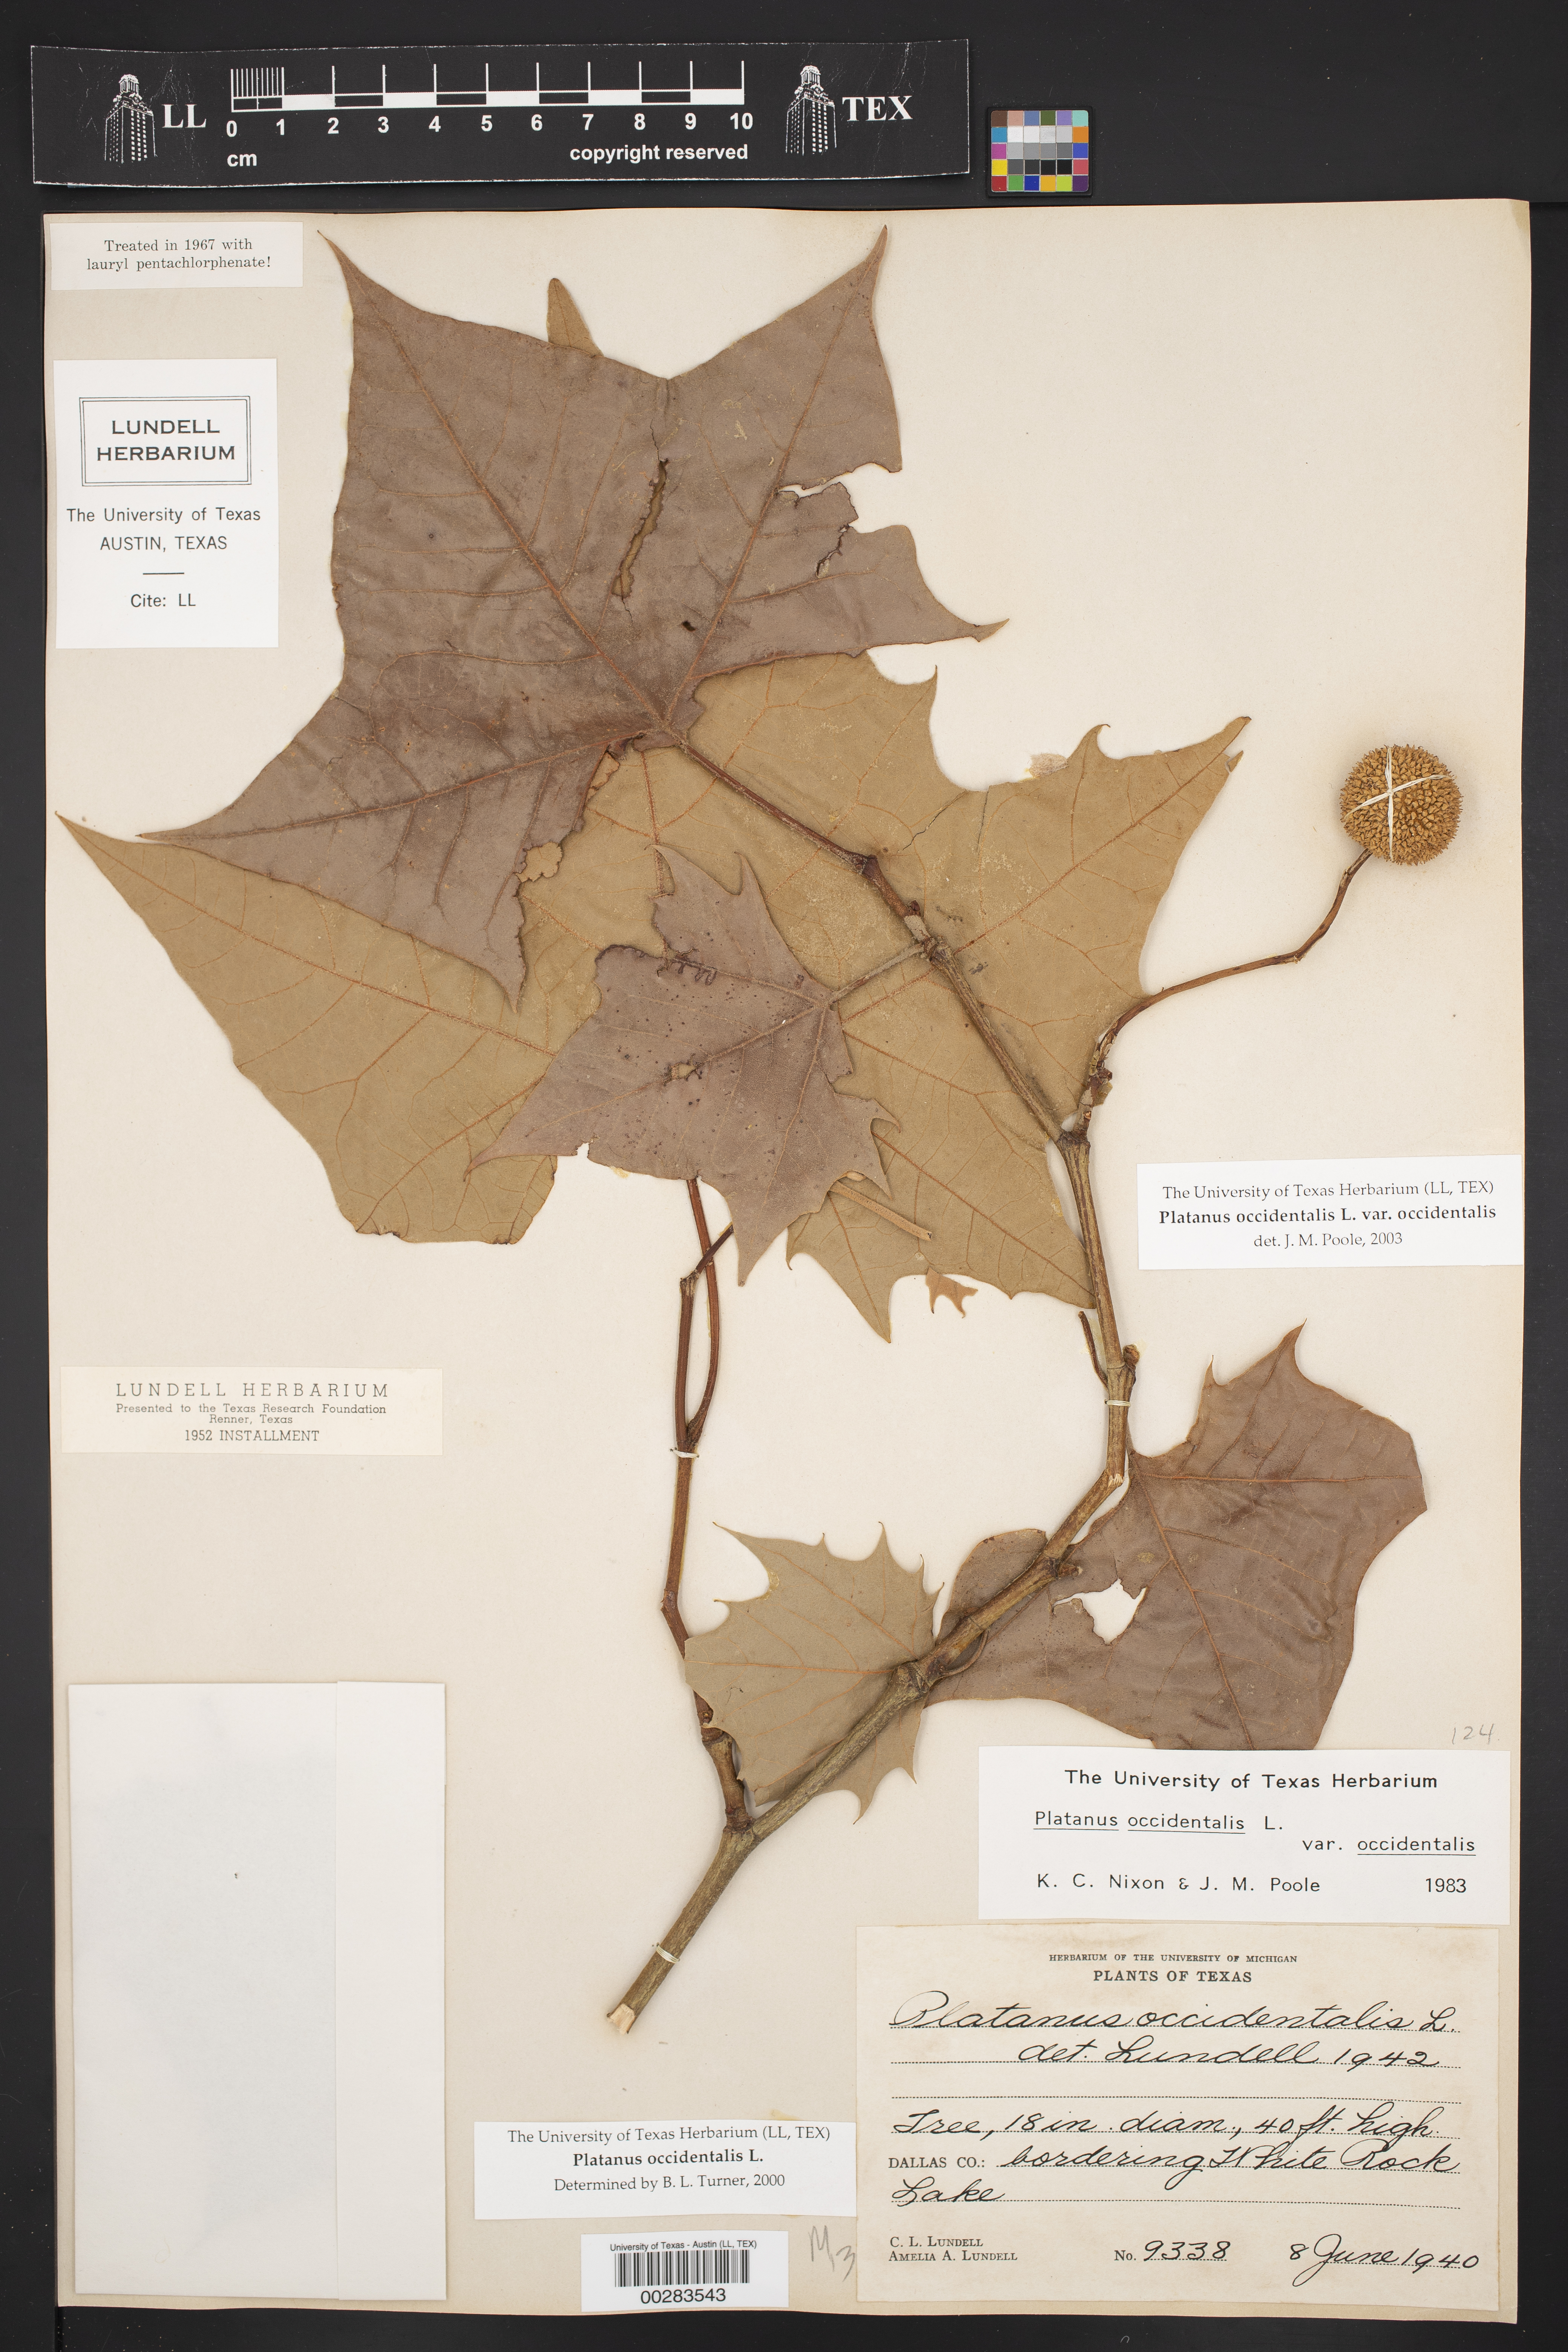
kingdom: Plantae
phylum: Tracheophyta
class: Magnoliopsida
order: Proteales
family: Platanaceae
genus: Platanus
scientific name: Platanus occidentalis
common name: American sycamore
